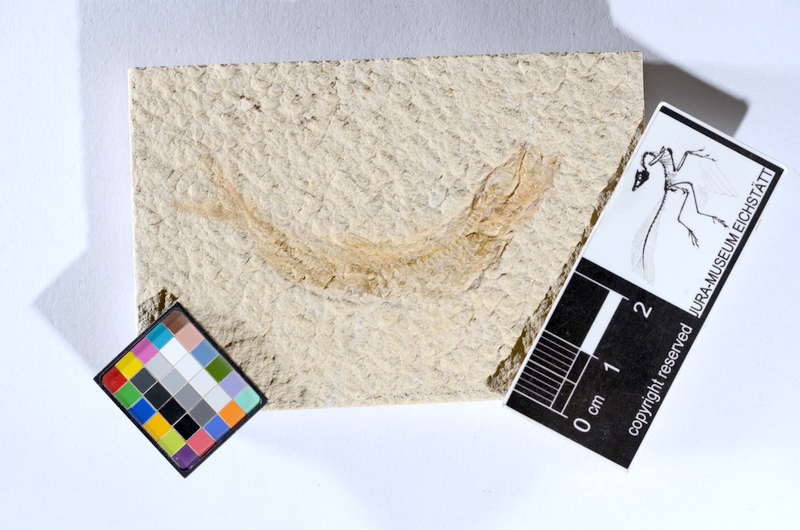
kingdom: Animalia
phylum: Chordata
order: Salmoniformes
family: Orthogonikleithridae
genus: Leptolepides
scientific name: Leptolepides sprattiformis
